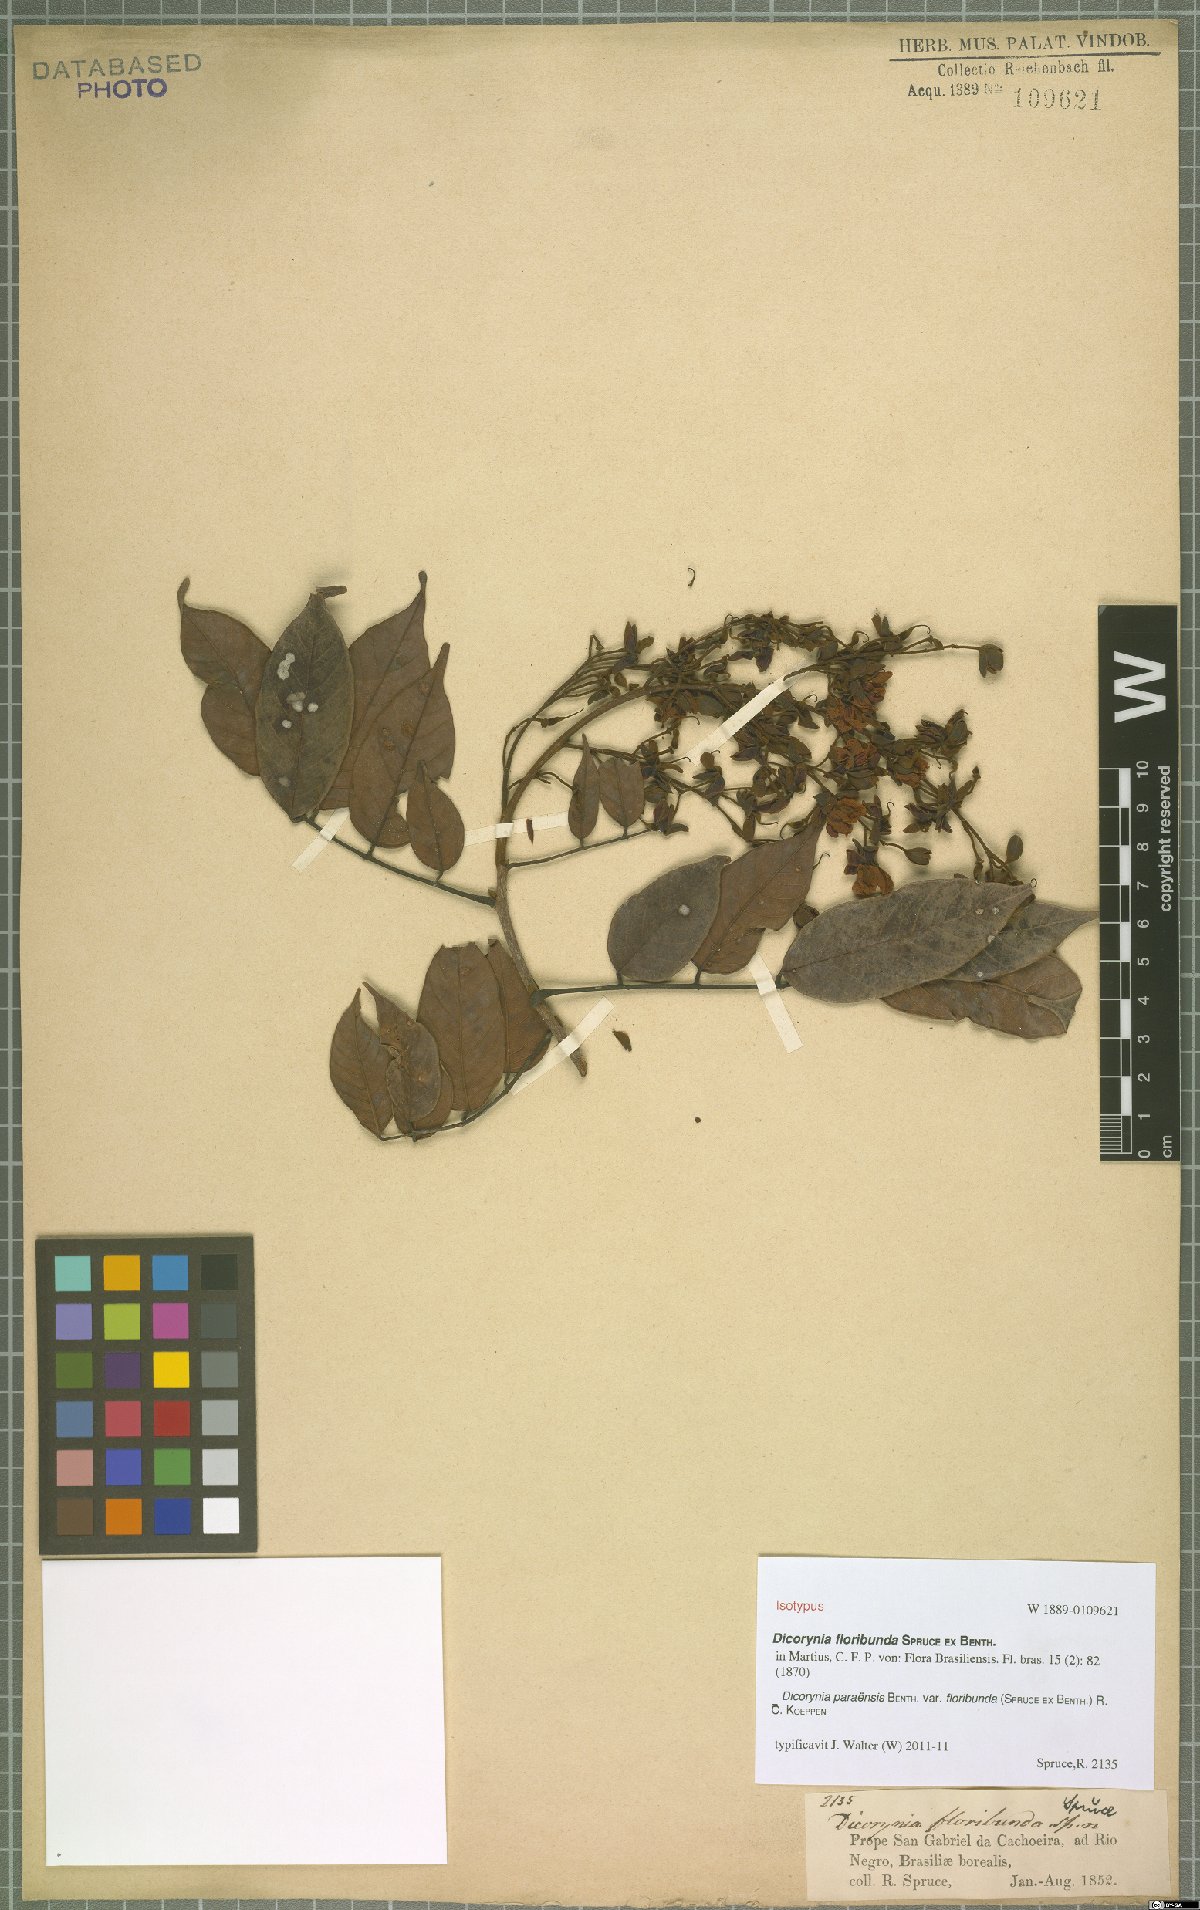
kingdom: Plantae
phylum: Tracheophyta
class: Magnoliopsida
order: Fabales
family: Fabaceae
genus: Dicorynia
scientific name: Dicorynia paraensis
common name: Angelique
